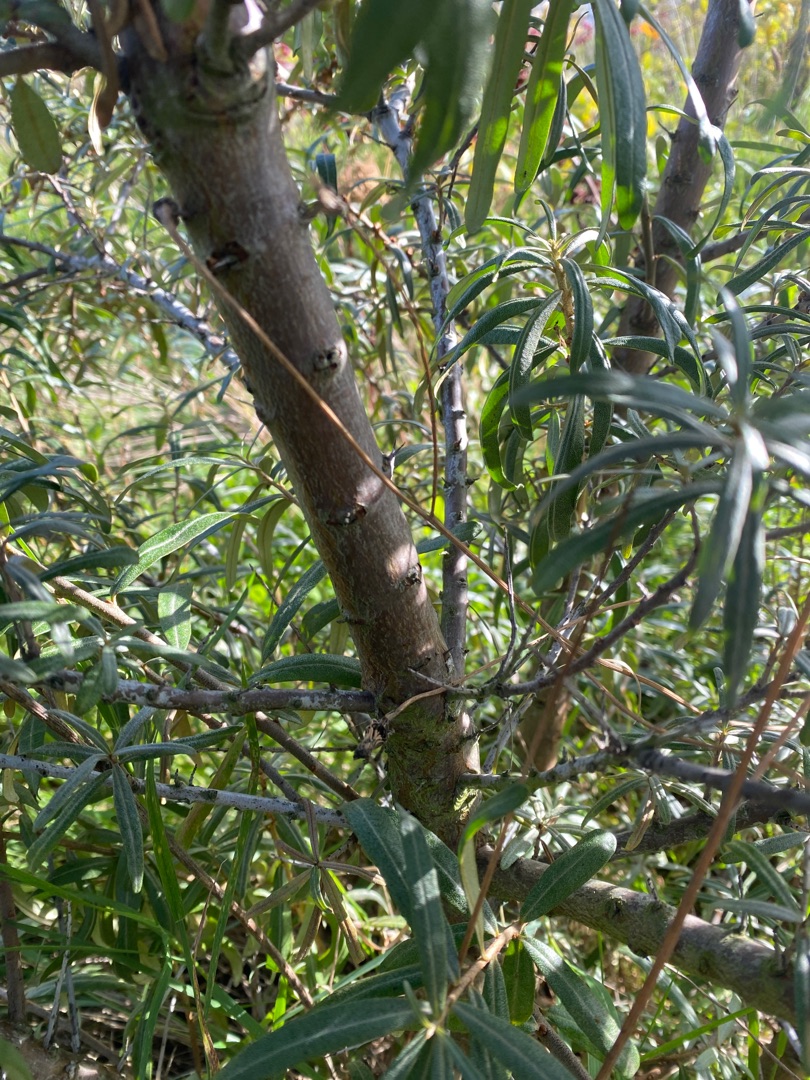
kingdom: Plantae
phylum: Tracheophyta
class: Magnoliopsida
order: Rosales
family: Elaeagnaceae
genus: Hippophae
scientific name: Hippophae rhamnoides
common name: Havtorn
